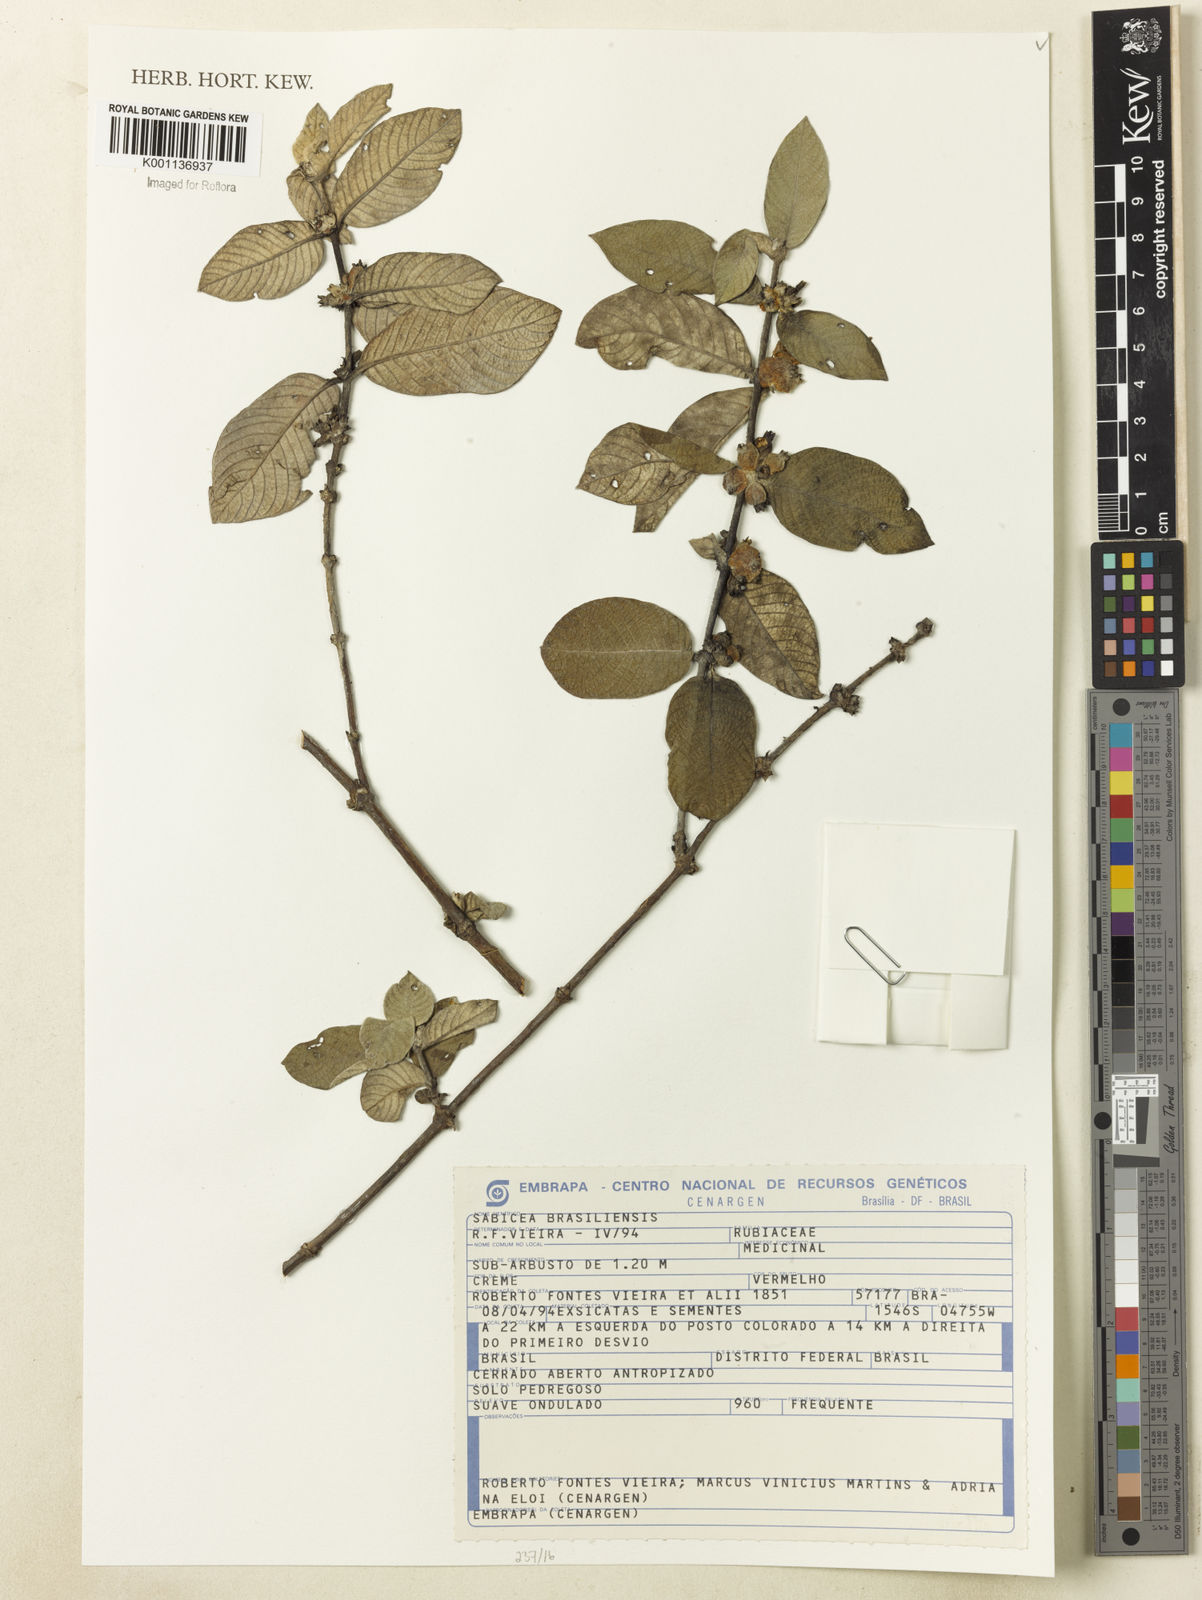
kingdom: Plantae
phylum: Tracheophyta
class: Magnoliopsida
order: Gentianales
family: Rubiaceae
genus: Sabicea
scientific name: Sabicea brasiliensis
